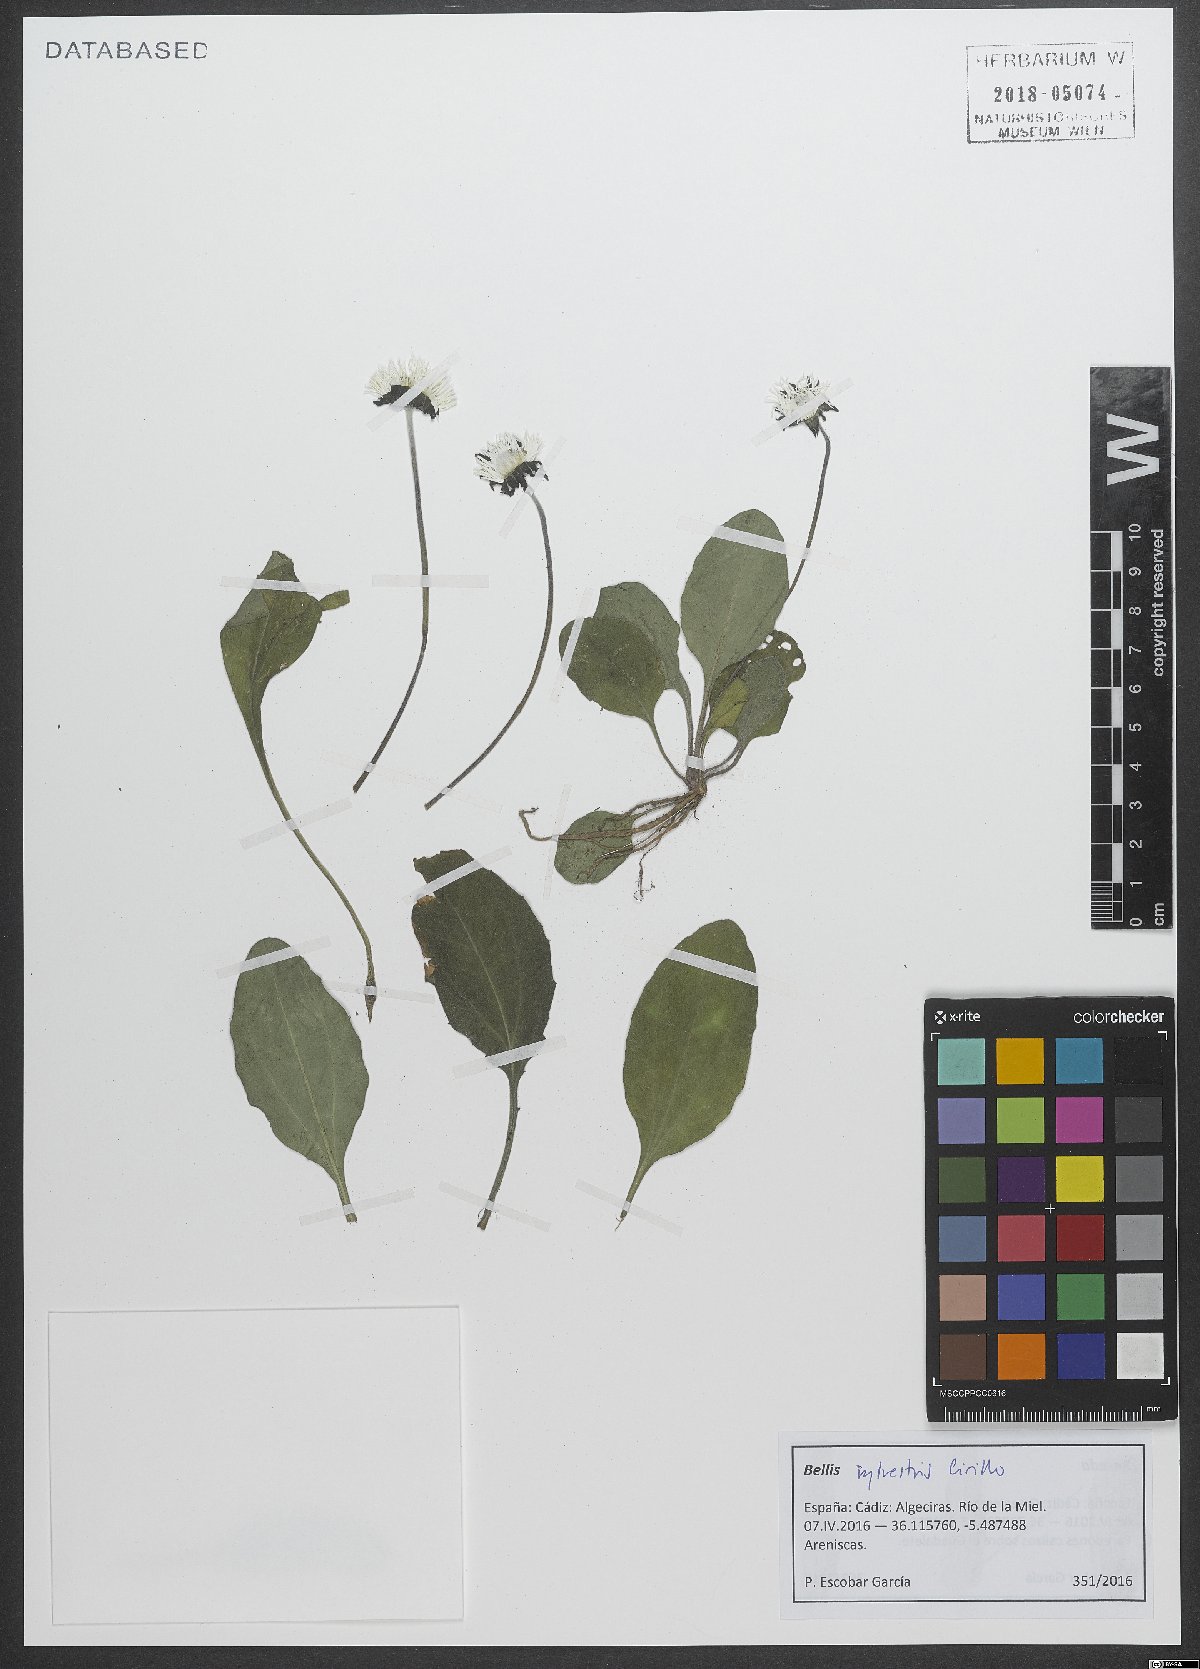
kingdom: Plantae
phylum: Tracheophyta
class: Magnoliopsida
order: Asterales
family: Asteraceae
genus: Bellis
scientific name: Bellis sylvestris
